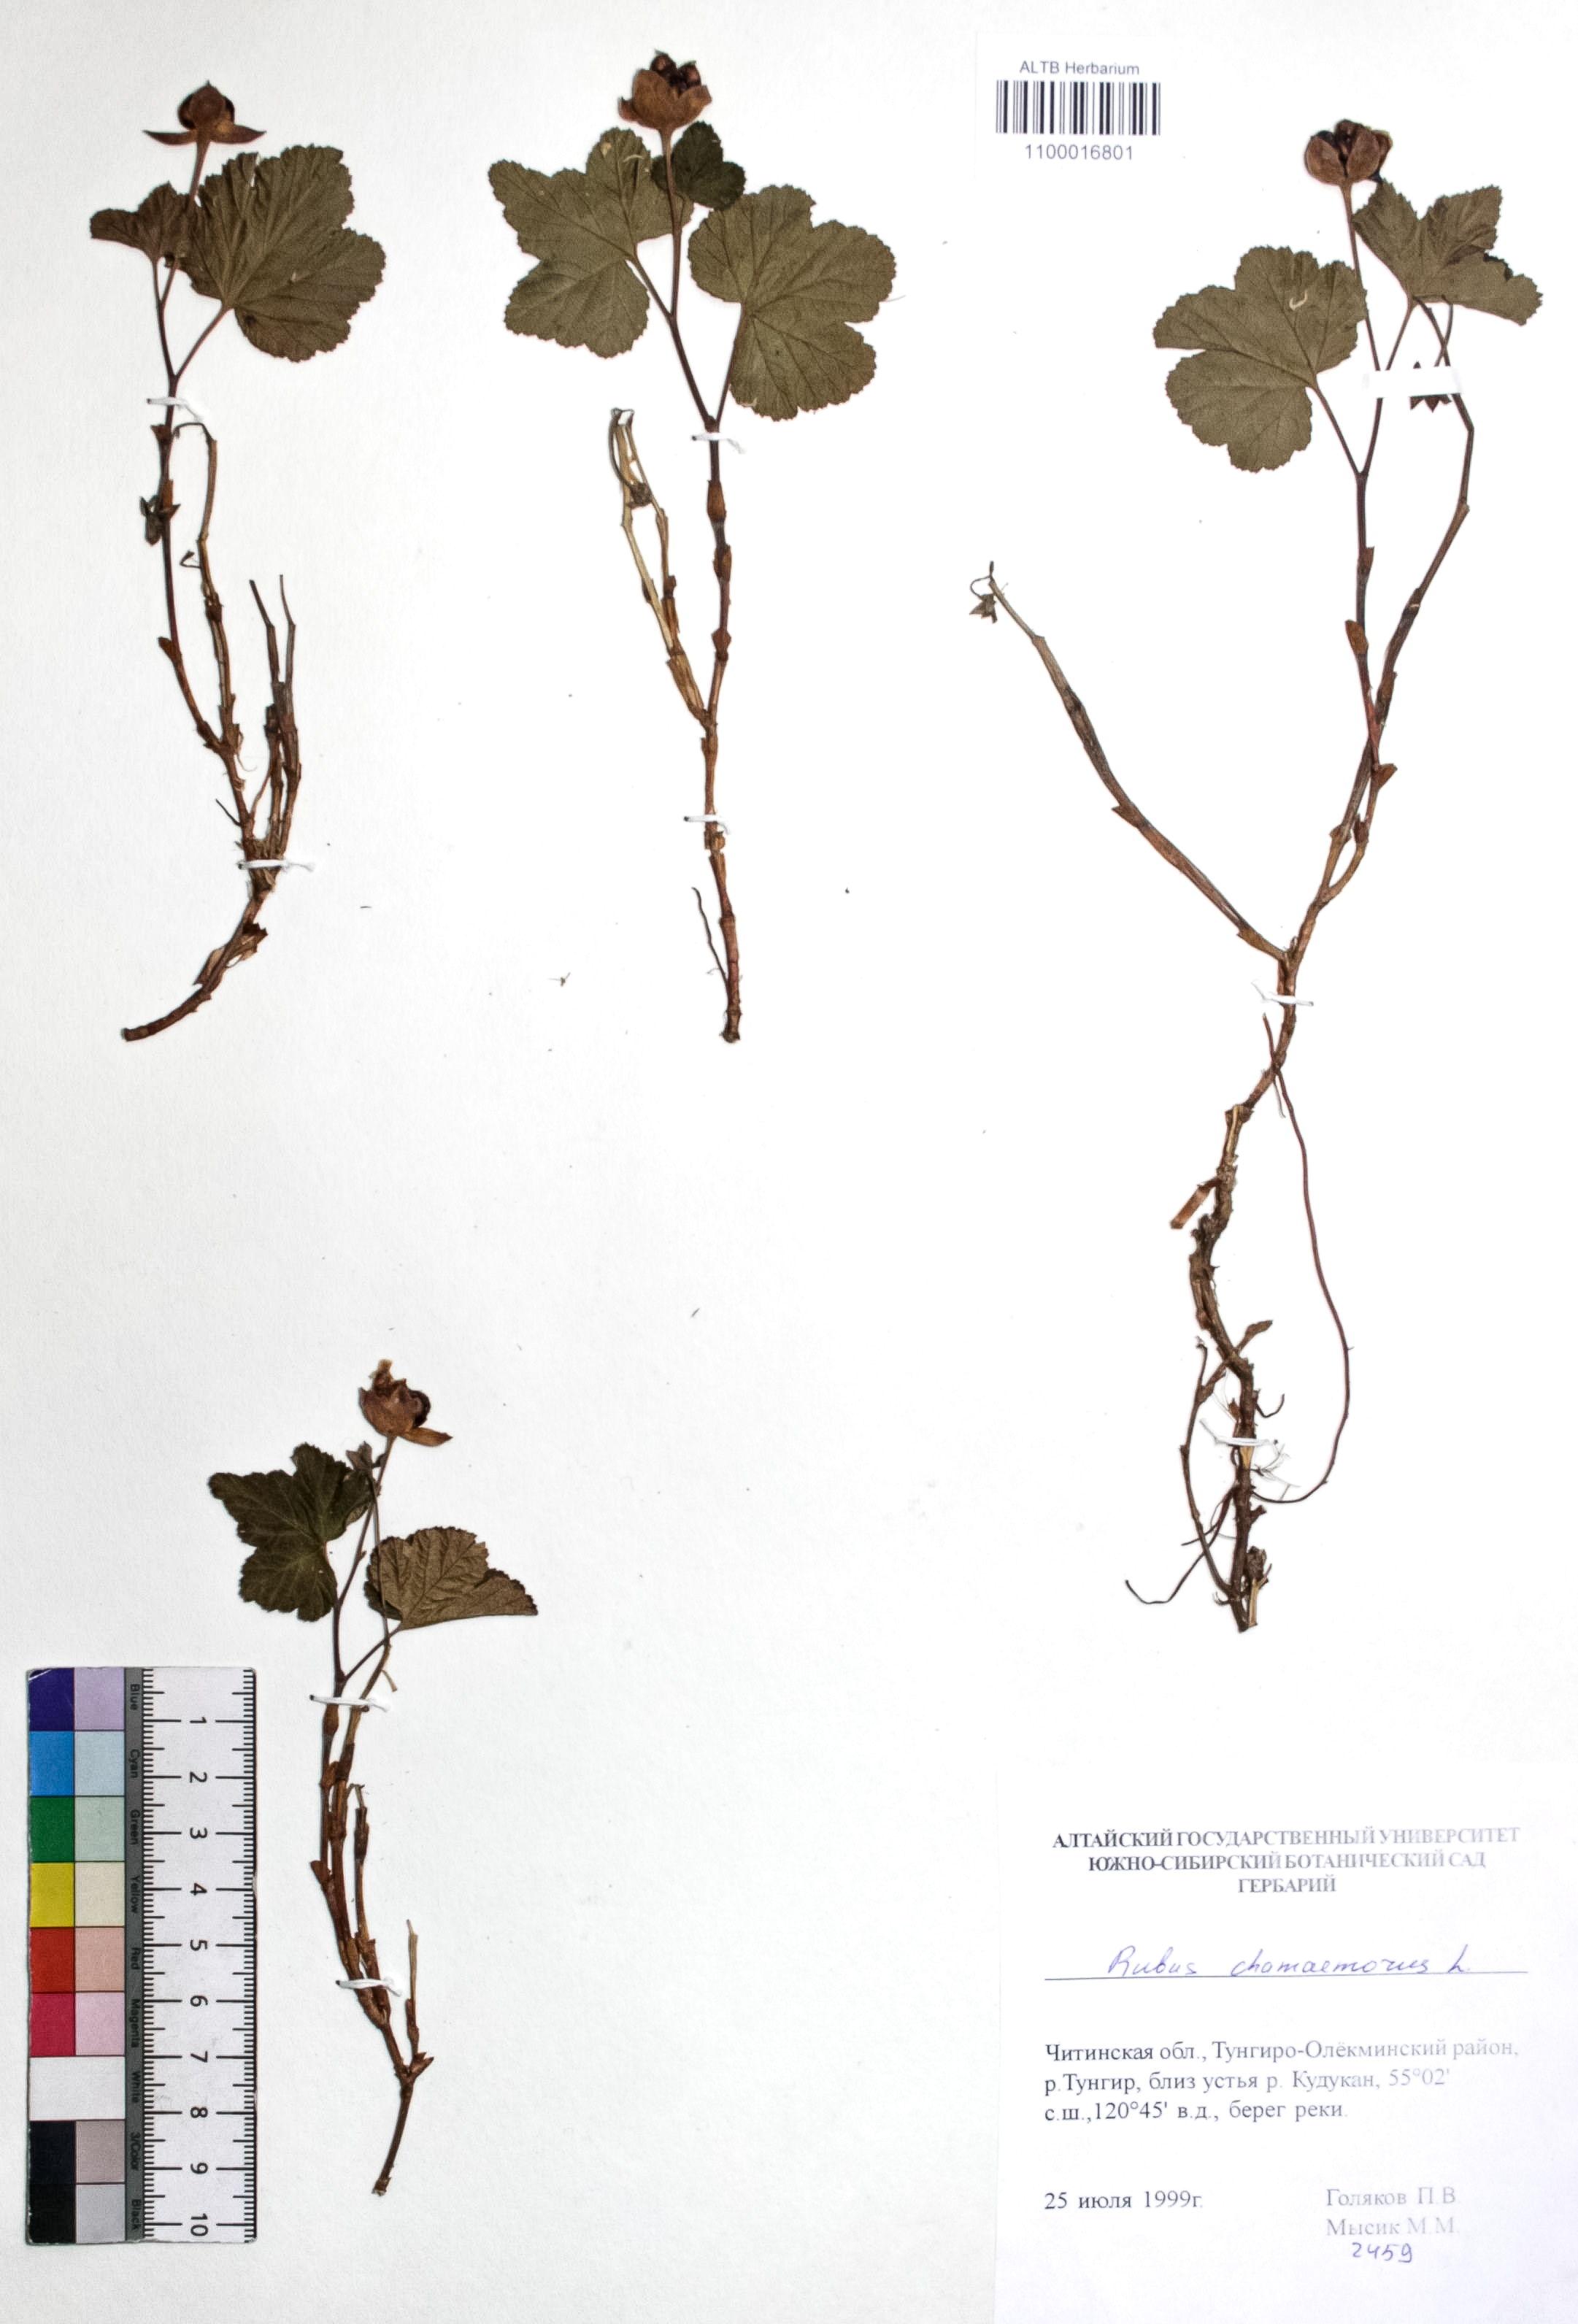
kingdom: Plantae
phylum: Tracheophyta
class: Magnoliopsida
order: Rosales
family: Rosaceae
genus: Rubus
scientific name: Rubus chamaemorus
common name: Cloudberry
